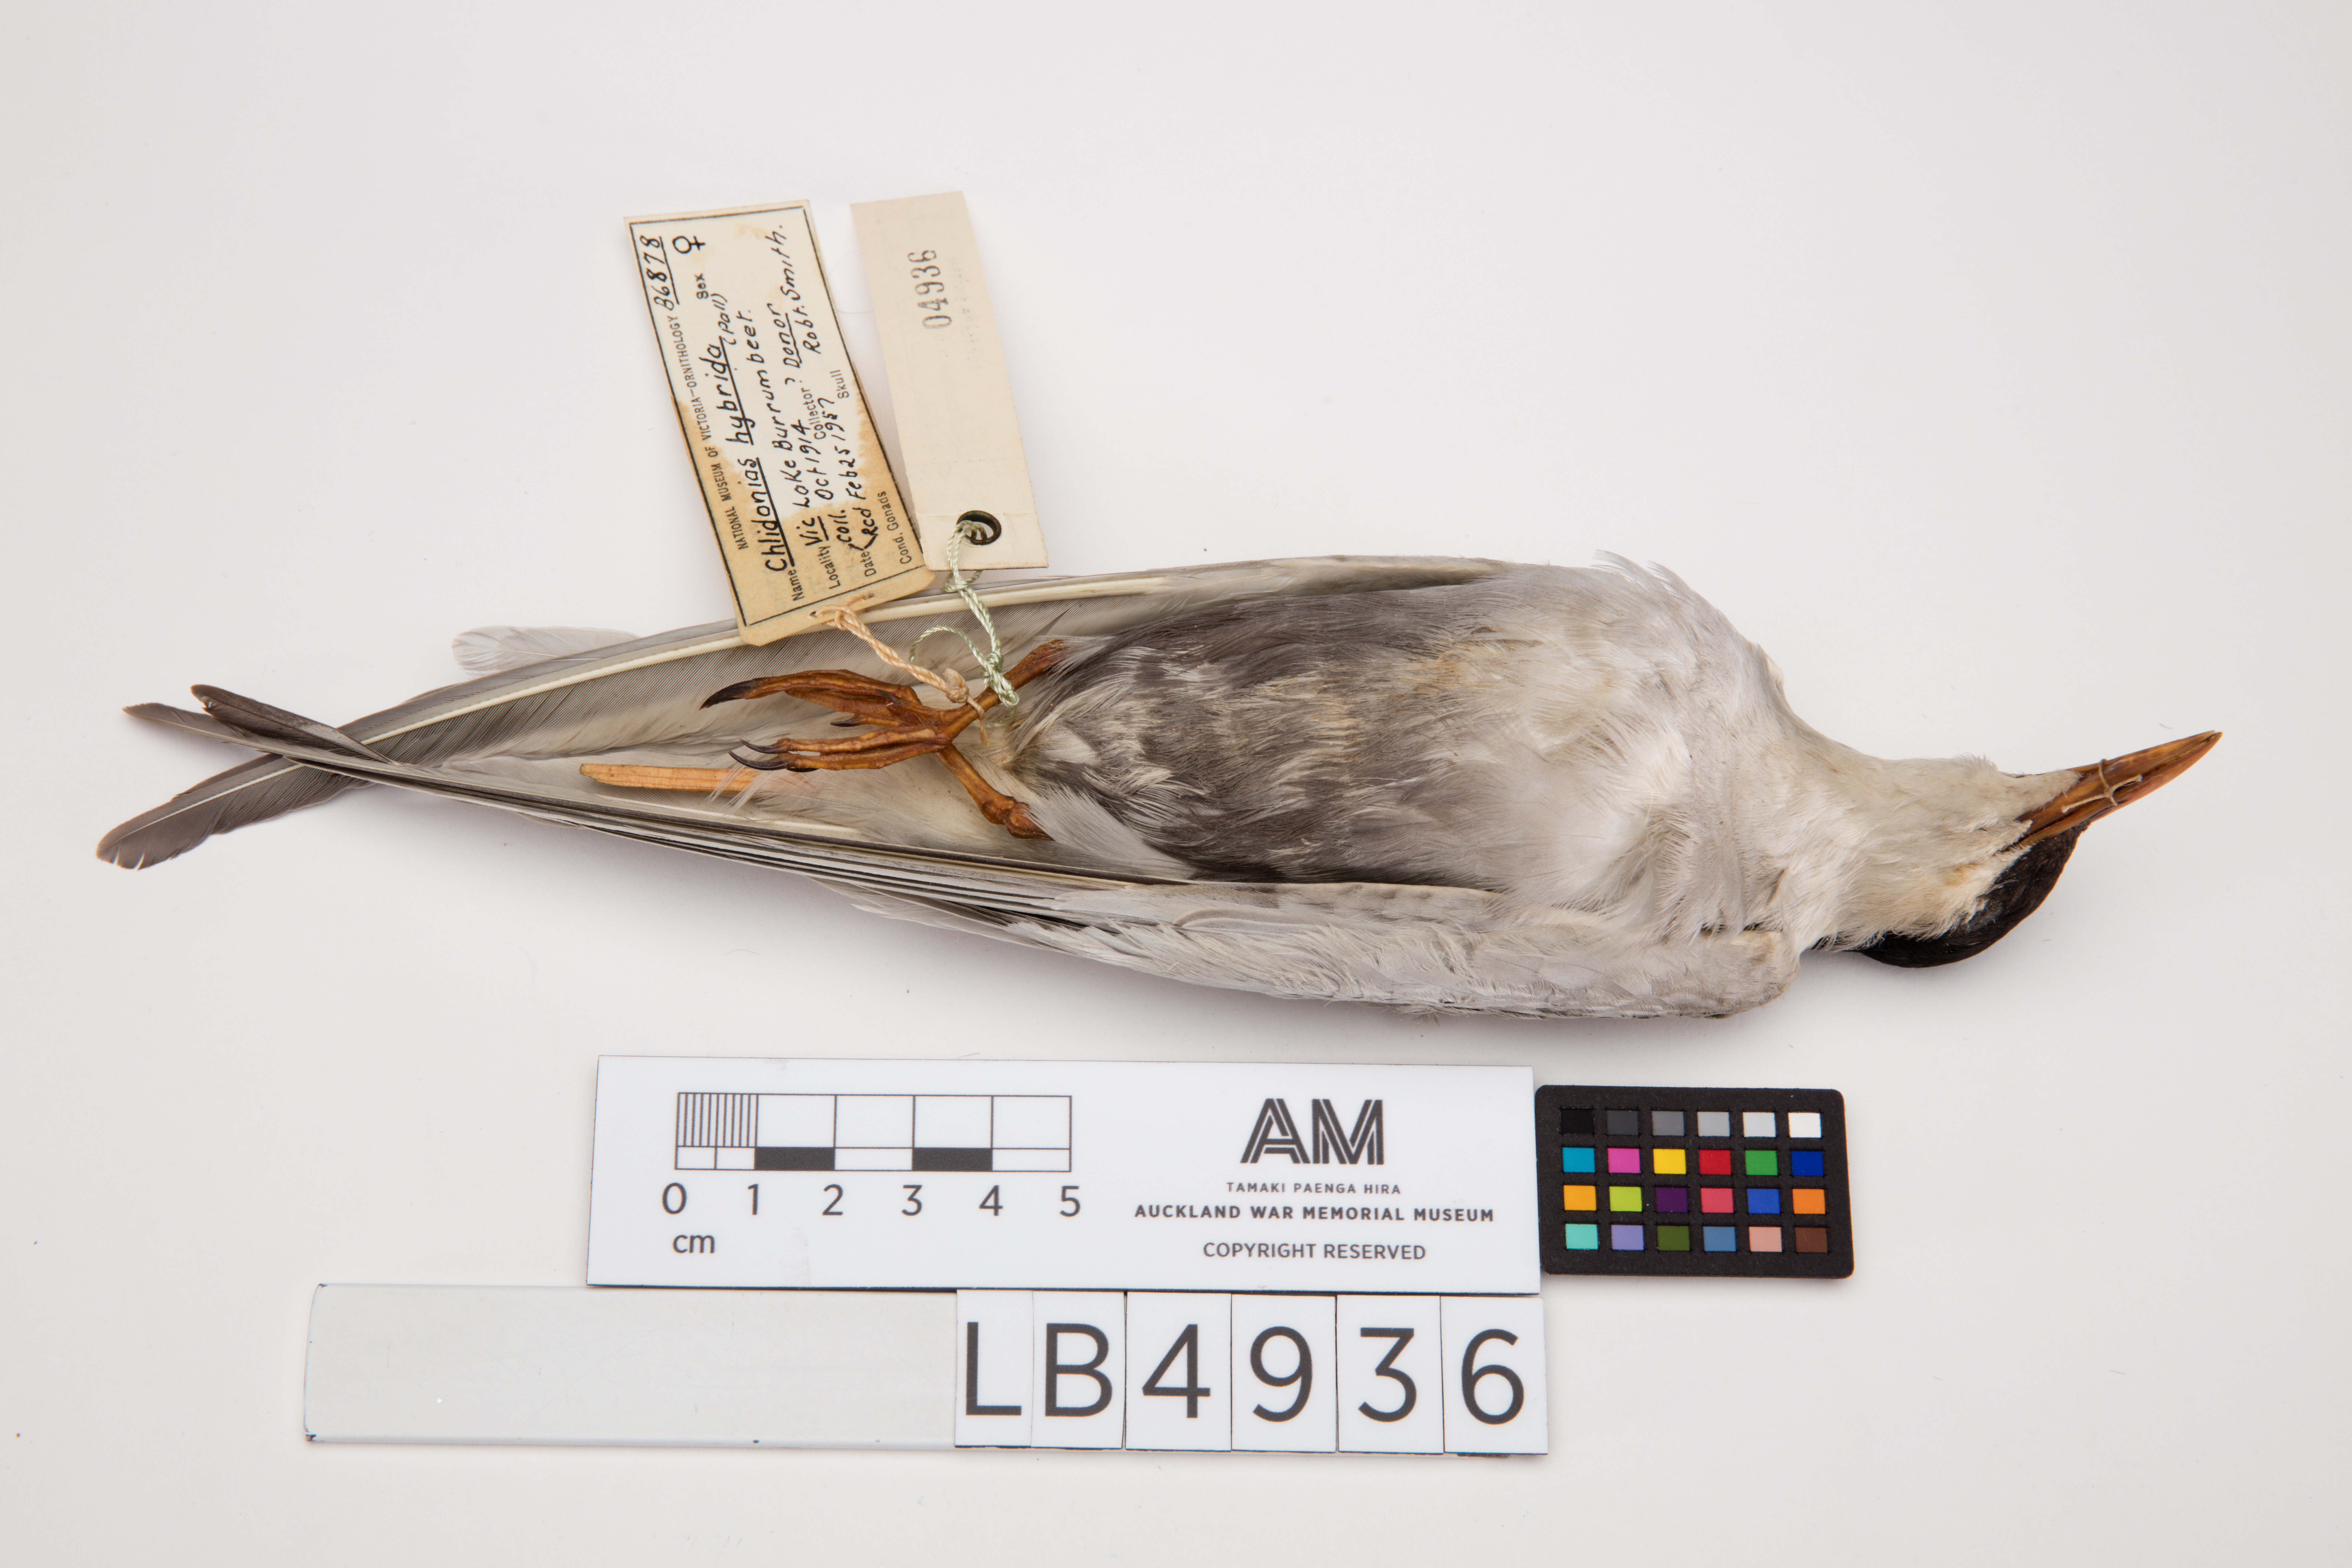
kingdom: Animalia
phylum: Chordata
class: Aves
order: Charadriiformes
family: Laridae
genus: Chlidonias
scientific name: Chlidonias hybrida
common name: Whiskered tern
